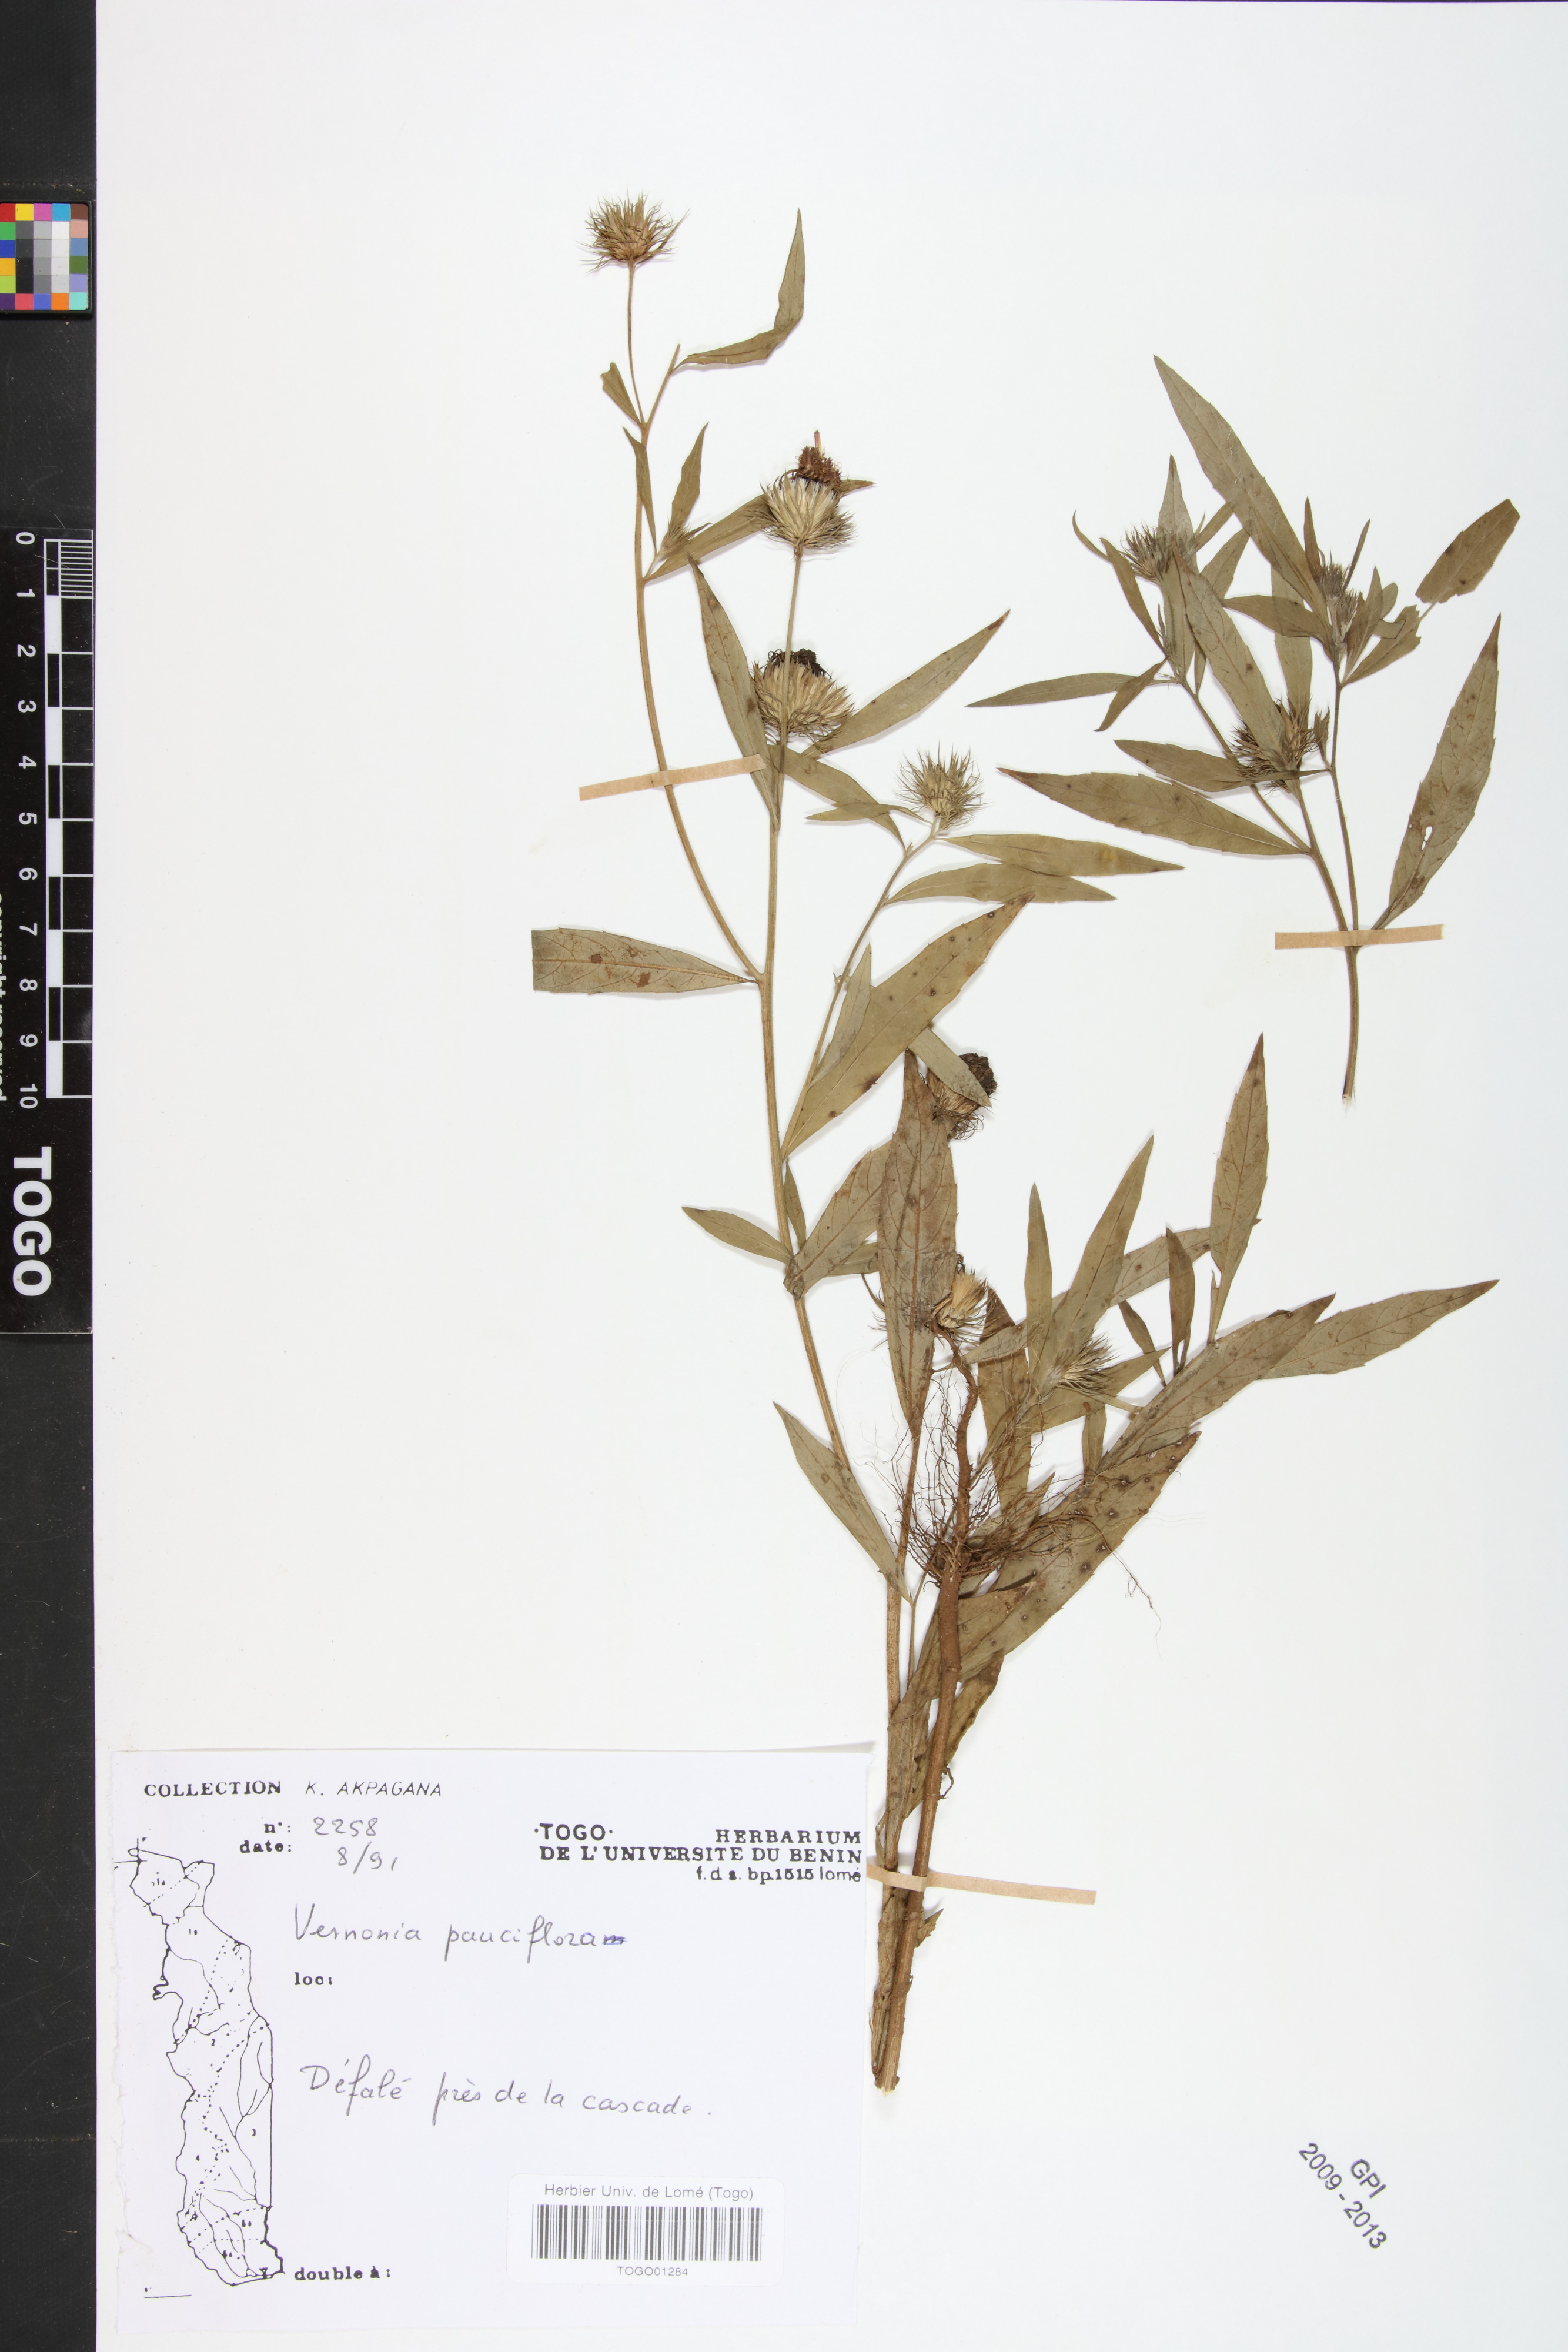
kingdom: Plantae
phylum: Tracheophyta
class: Magnoliopsida
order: Asterales
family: Asteraceae
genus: Vernonia
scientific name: Vernonia galamensis
